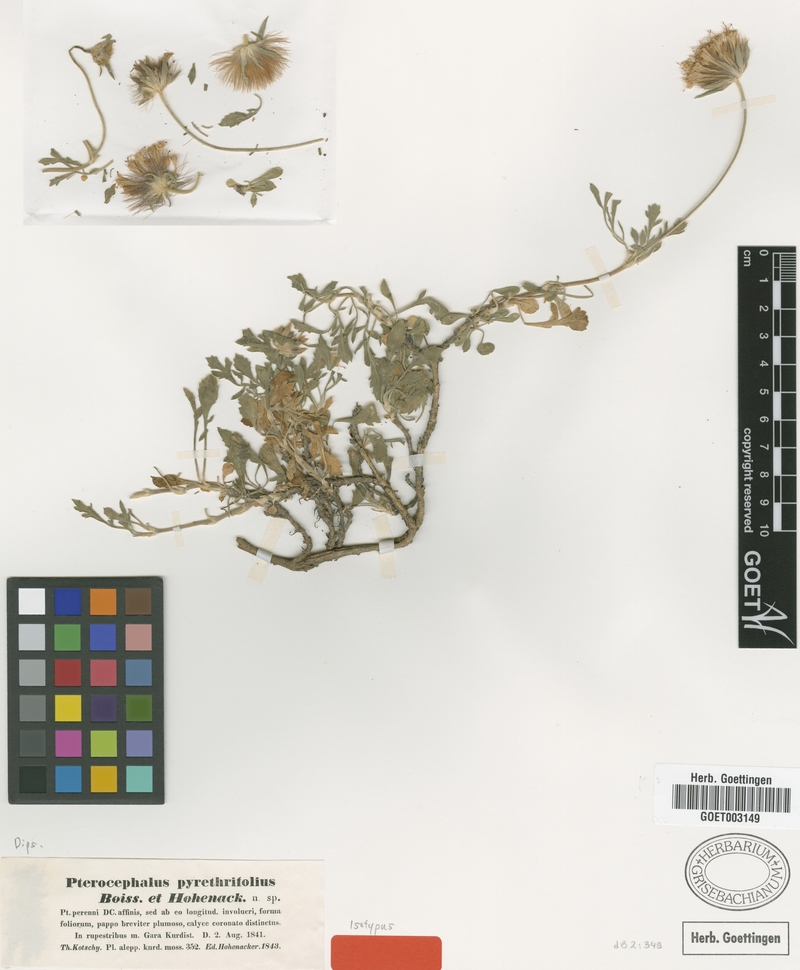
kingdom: Plantae
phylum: Tracheophyta
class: Magnoliopsida
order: Dipsacales
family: Caprifoliaceae
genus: Pterocephalus
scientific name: Pterocephalus pyrethrifolius
